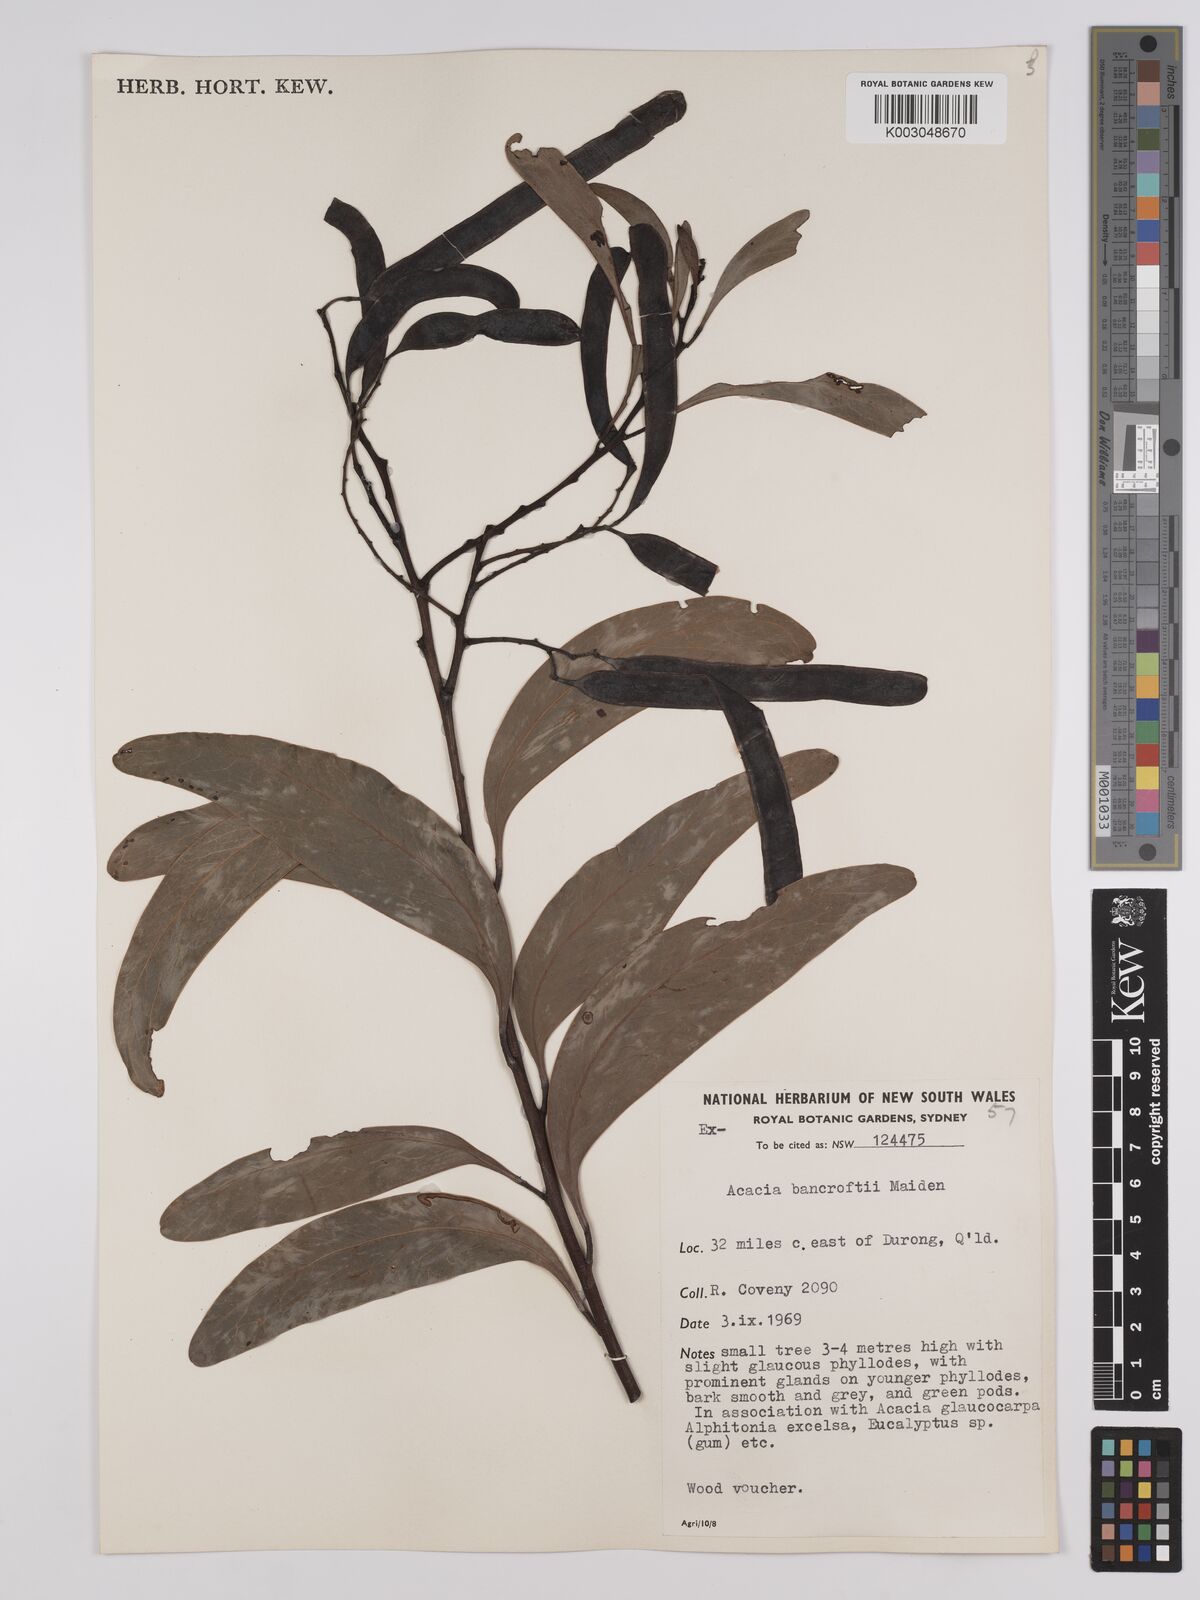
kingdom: Plantae
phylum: Tracheophyta
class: Magnoliopsida
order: Fabales
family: Fabaceae
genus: Acacia
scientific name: Acacia
